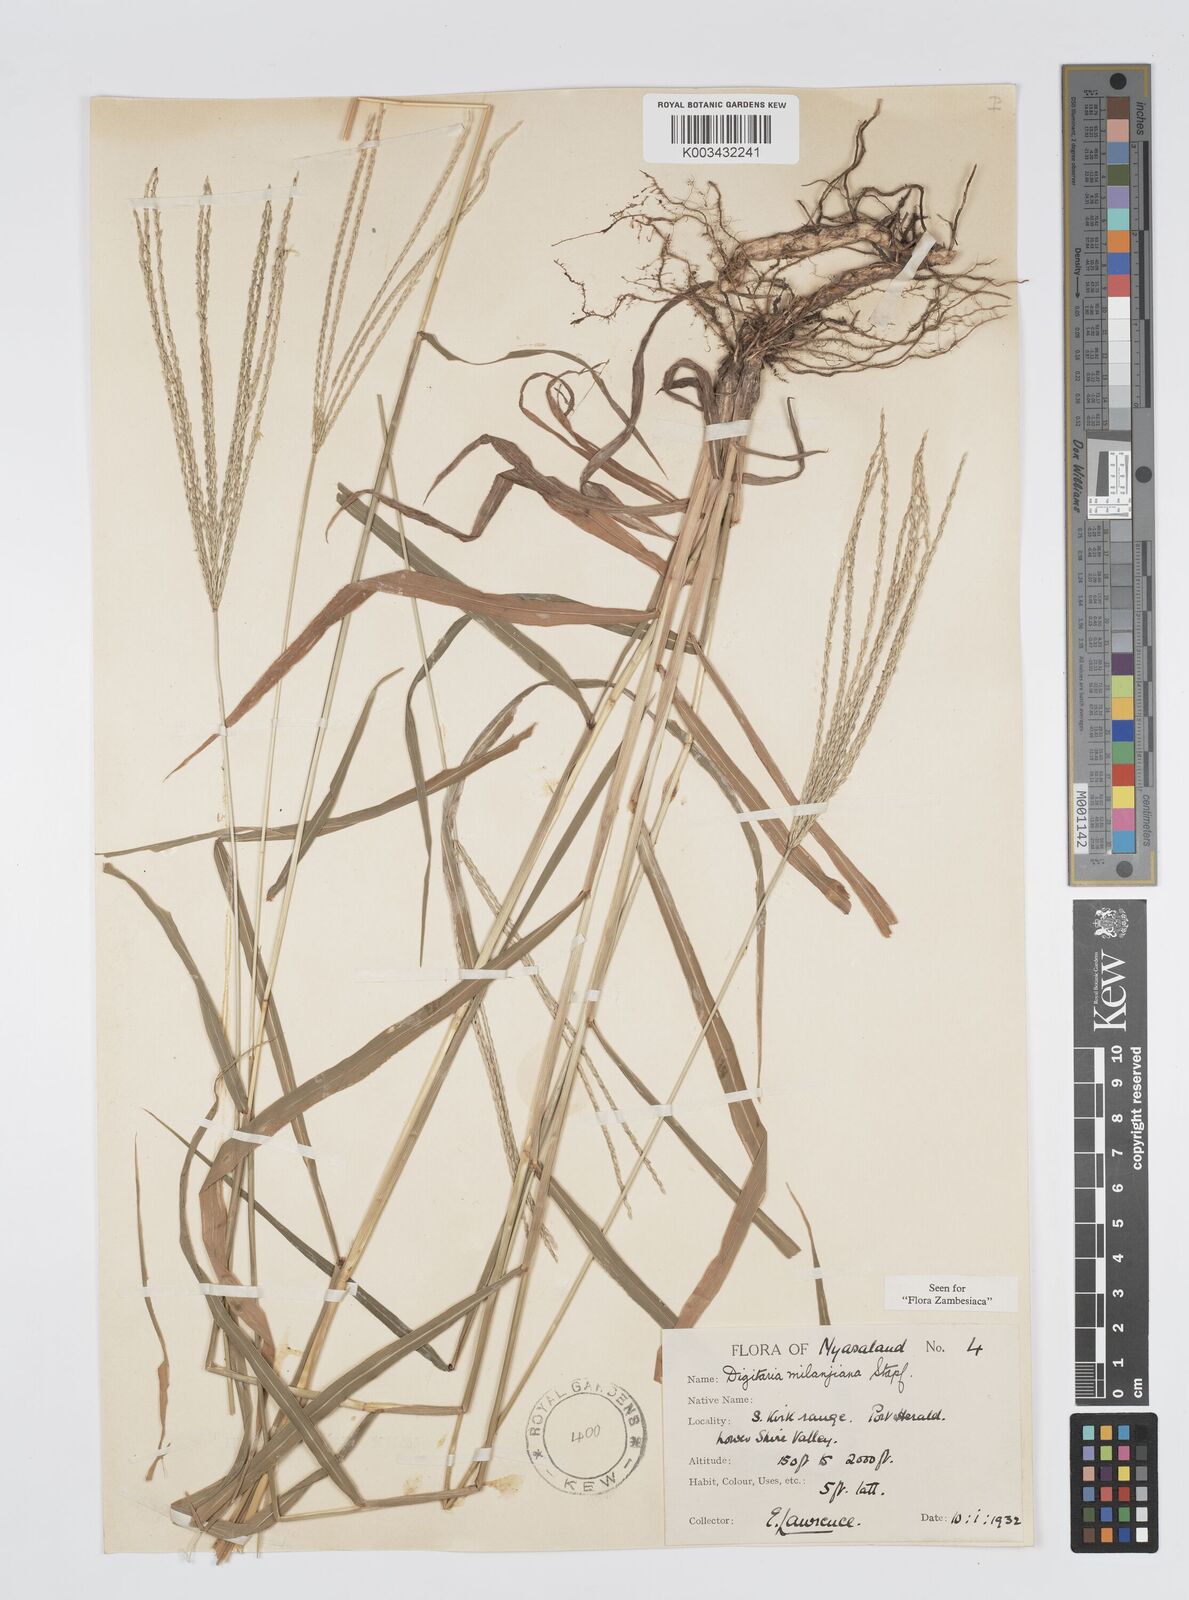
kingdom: Plantae
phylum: Tracheophyta
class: Liliopsida
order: Poales
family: Poaceae
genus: Digitaria
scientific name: Digitaria milanjiana
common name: Madagascar crabgrass
